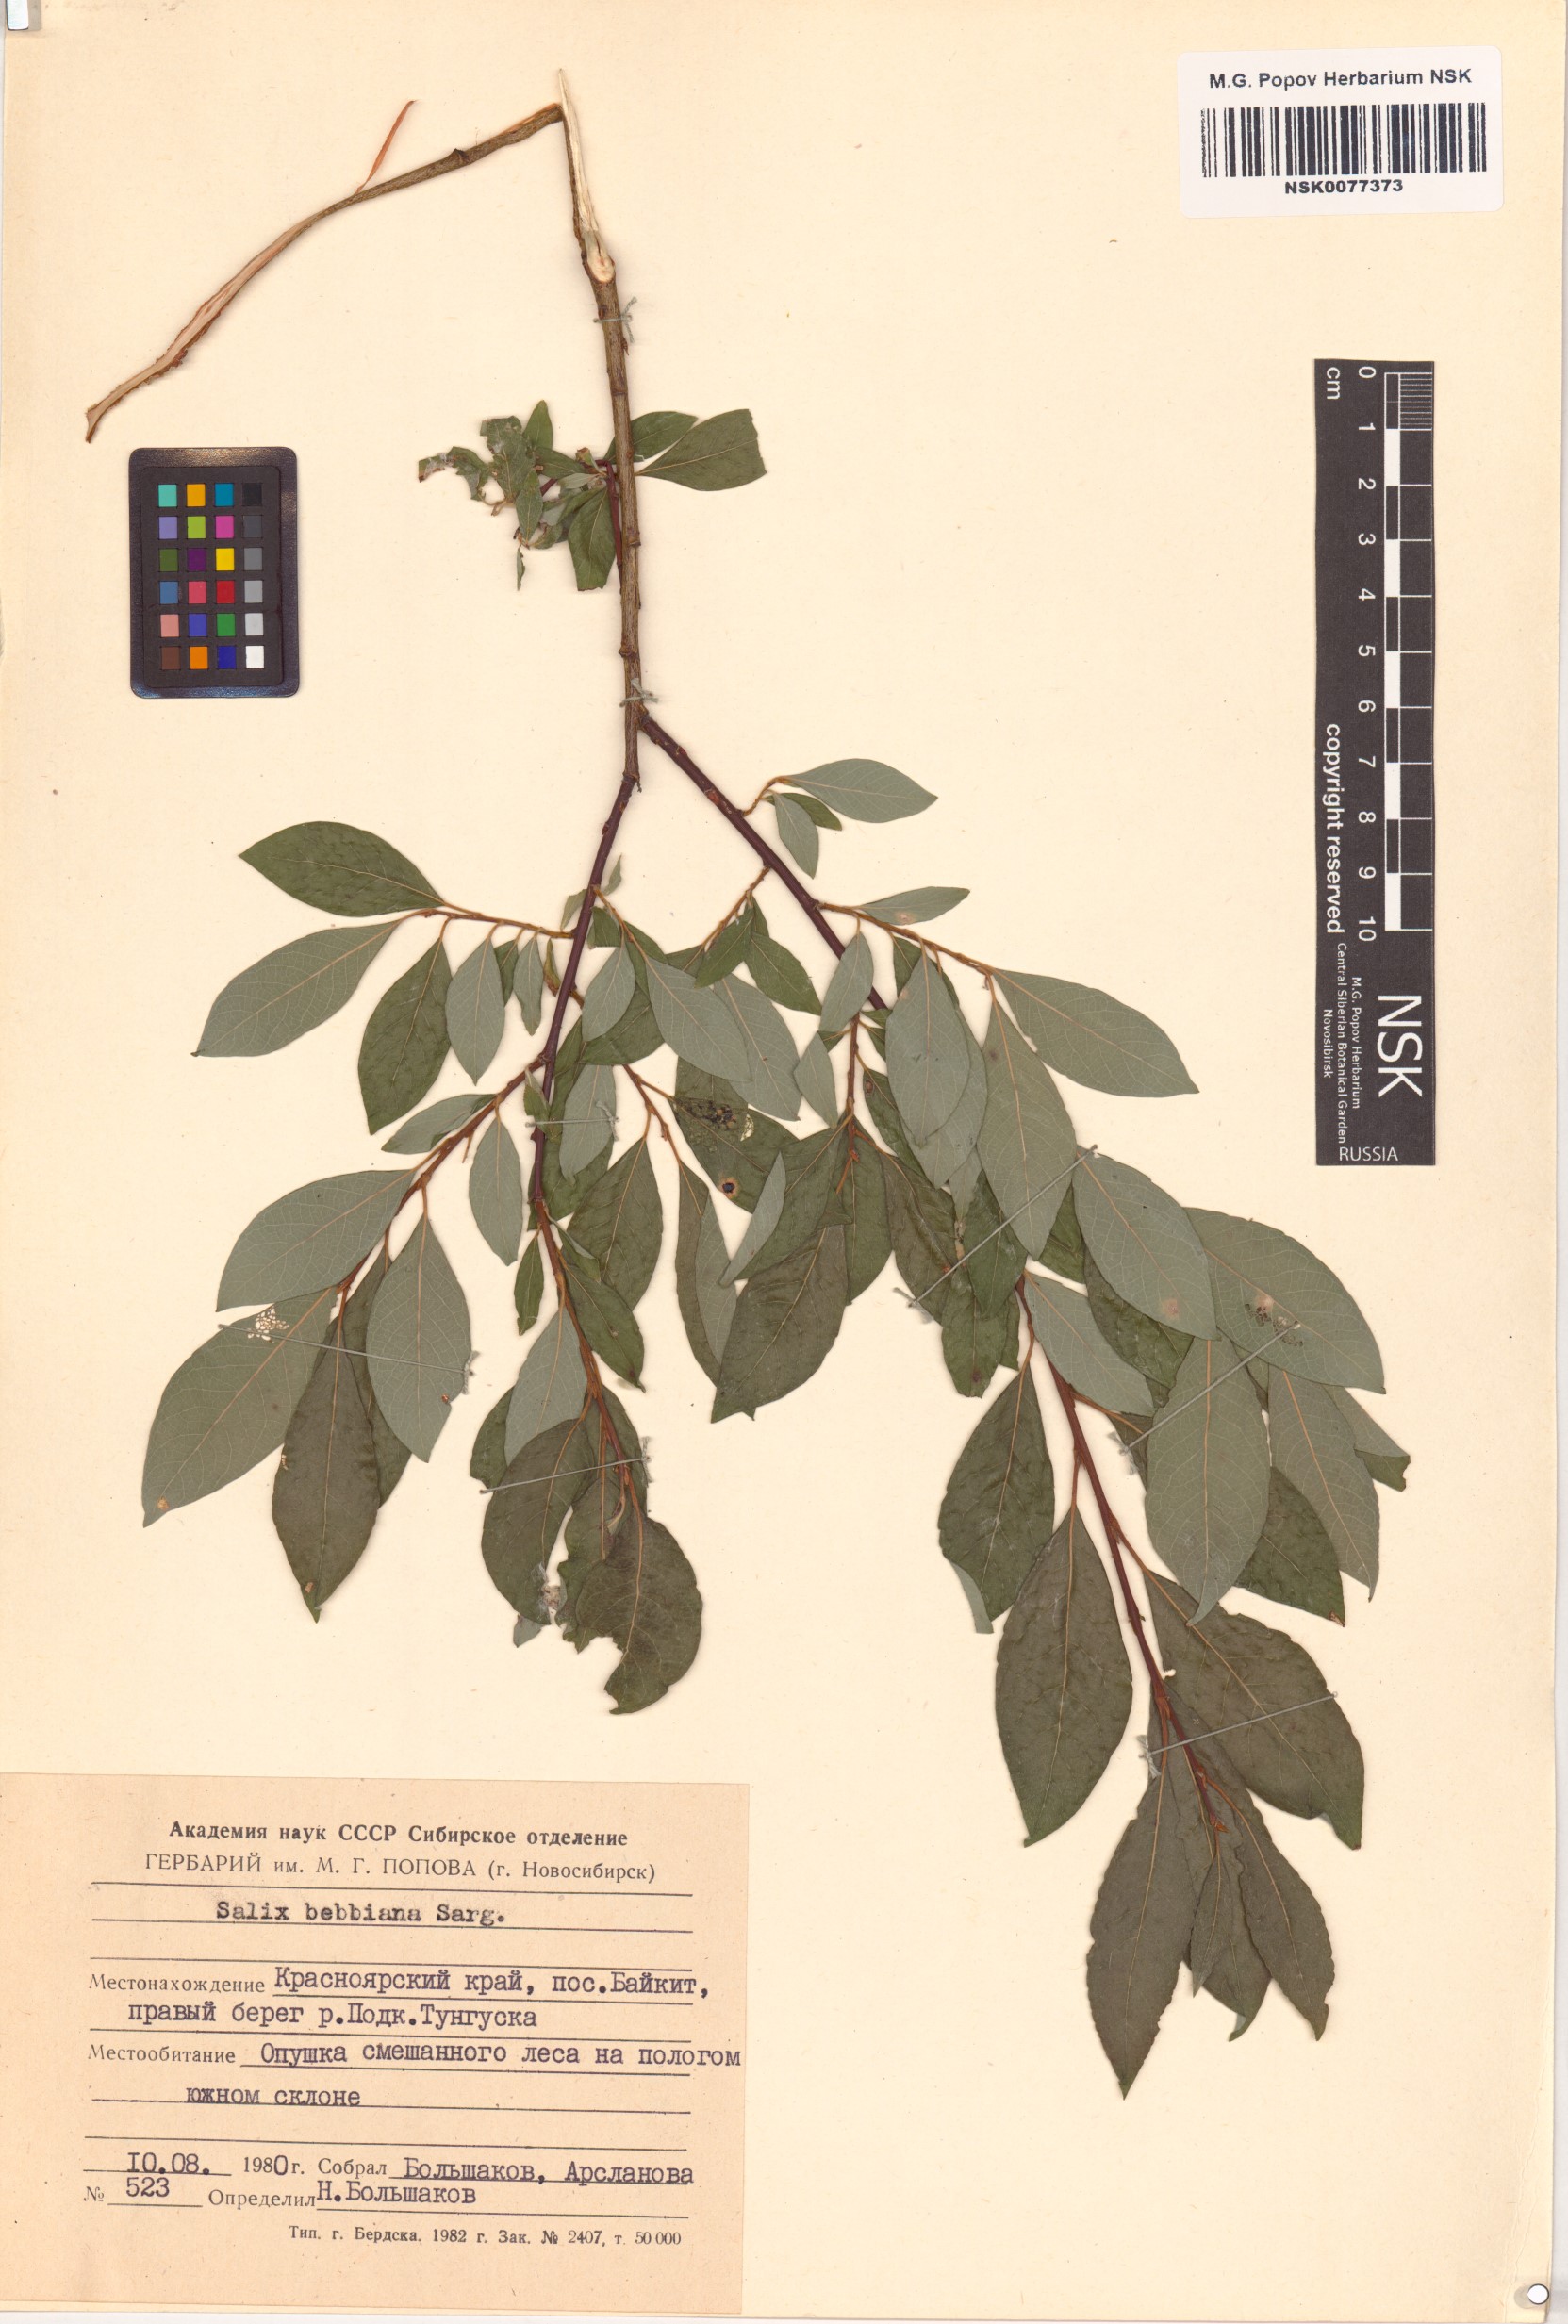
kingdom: Plantae
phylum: Tracheophyta
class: Magnoliopsida
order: Malpighiales
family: Salicaceae
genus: Salix
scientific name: Salix bebbiana
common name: Bebb's willow
